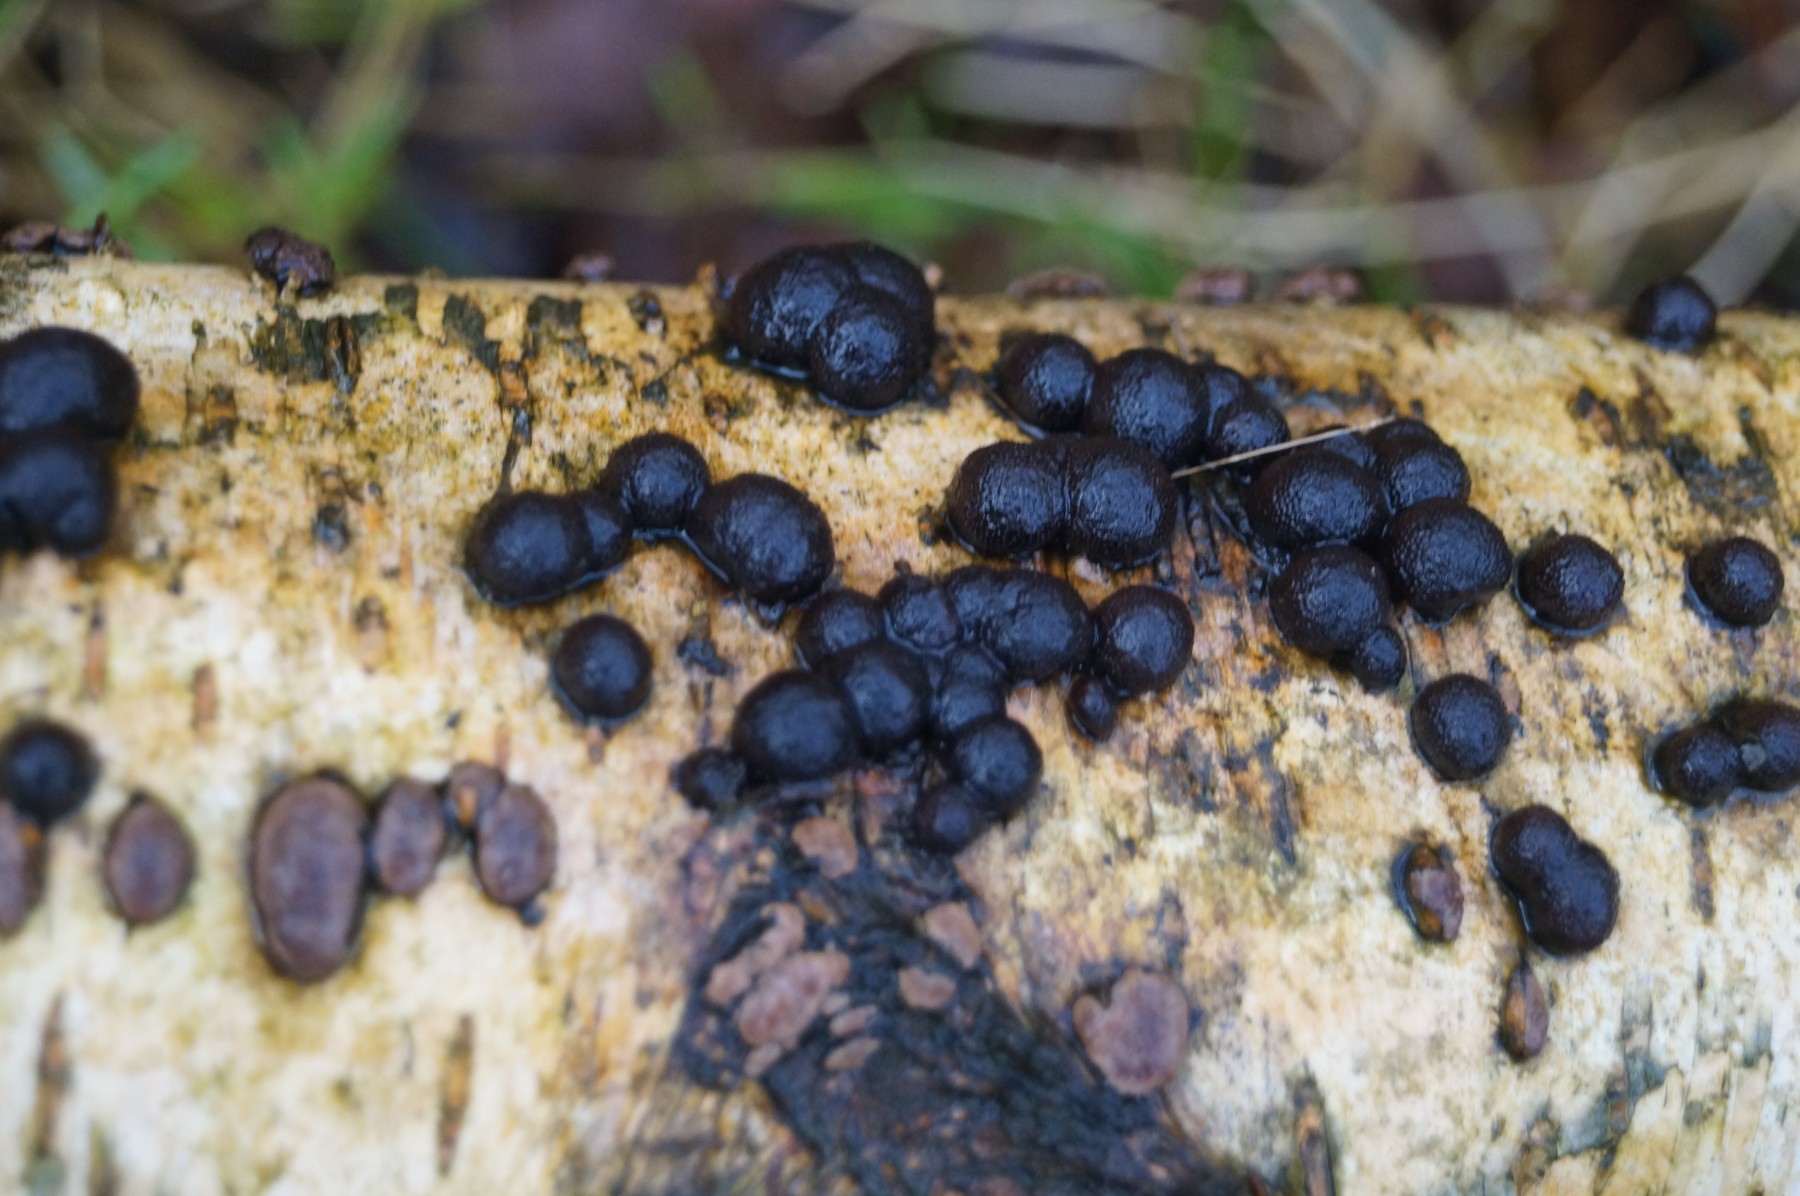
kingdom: Fungi
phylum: Ascomycota
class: Sordariomycetes
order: Xylariales
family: Hypoxylaceae
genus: Jackrogersella
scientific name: Jackrogersella multiformis
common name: foranderlig kulbær
